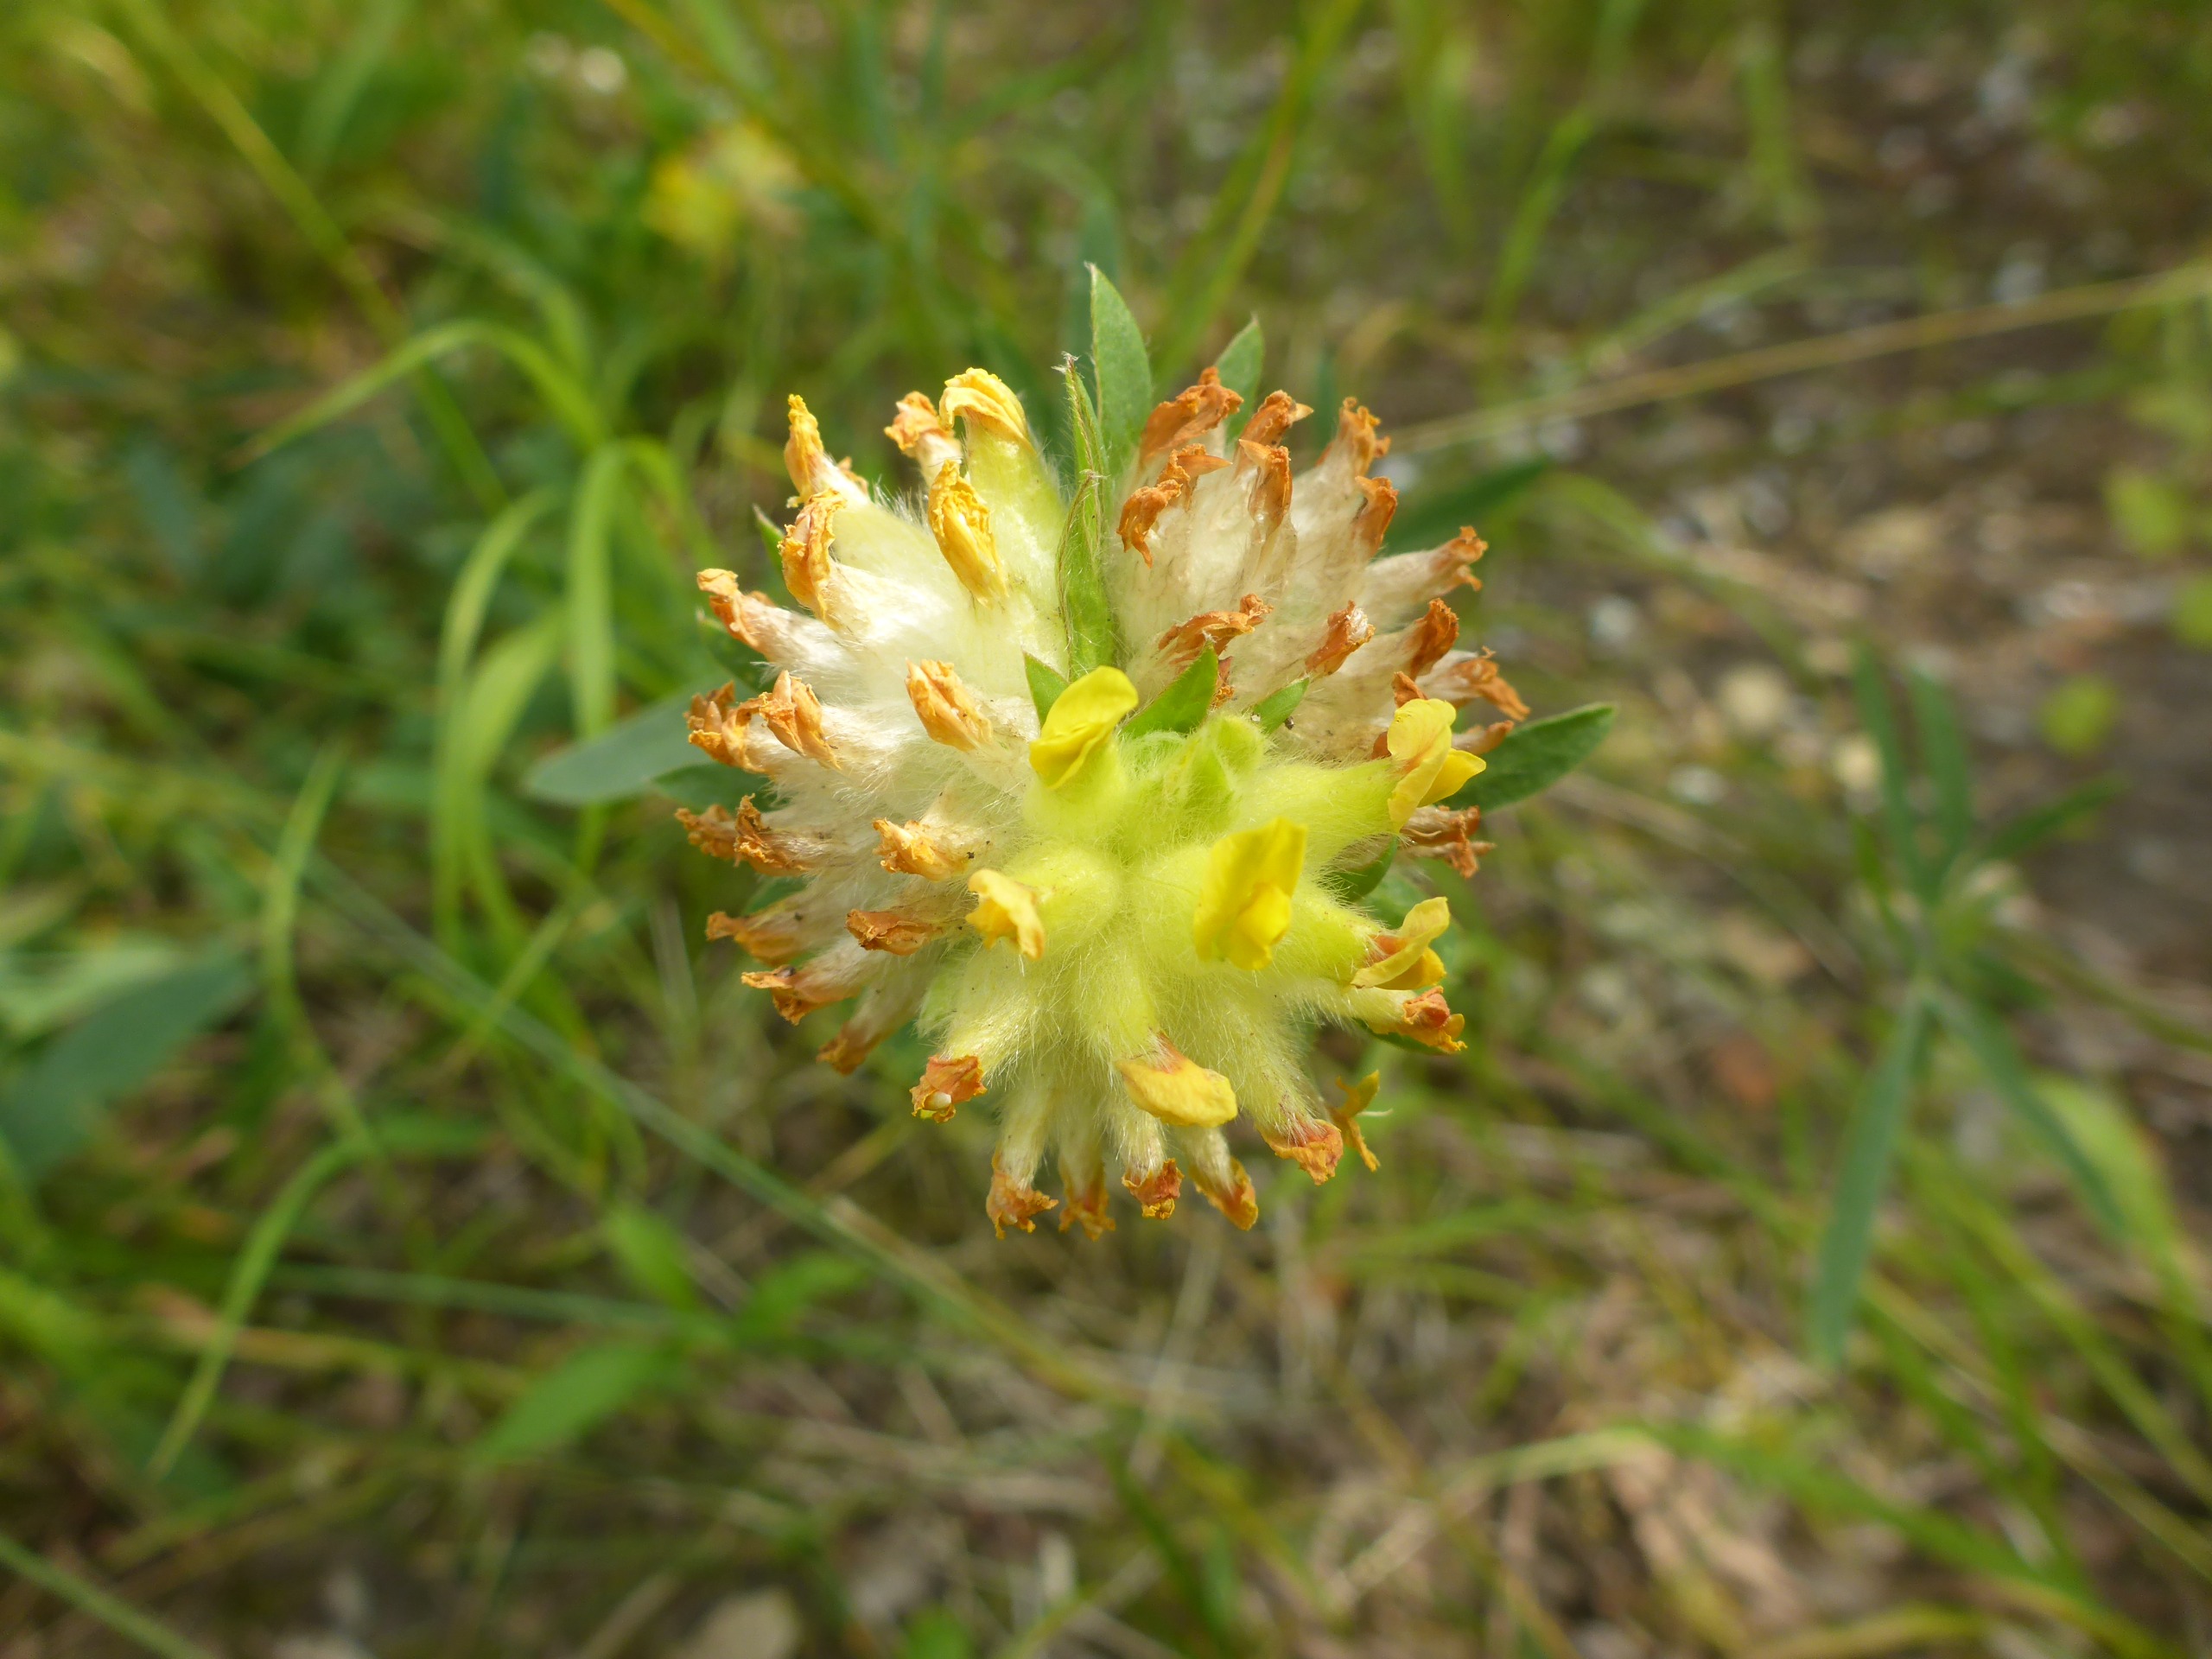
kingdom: Plantae
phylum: Tracheophyta
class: Magnoliopsida
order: Fabales
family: Fabaceae
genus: Anthyllis
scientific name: Anthyllis vulneraria
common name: Rundbælg
